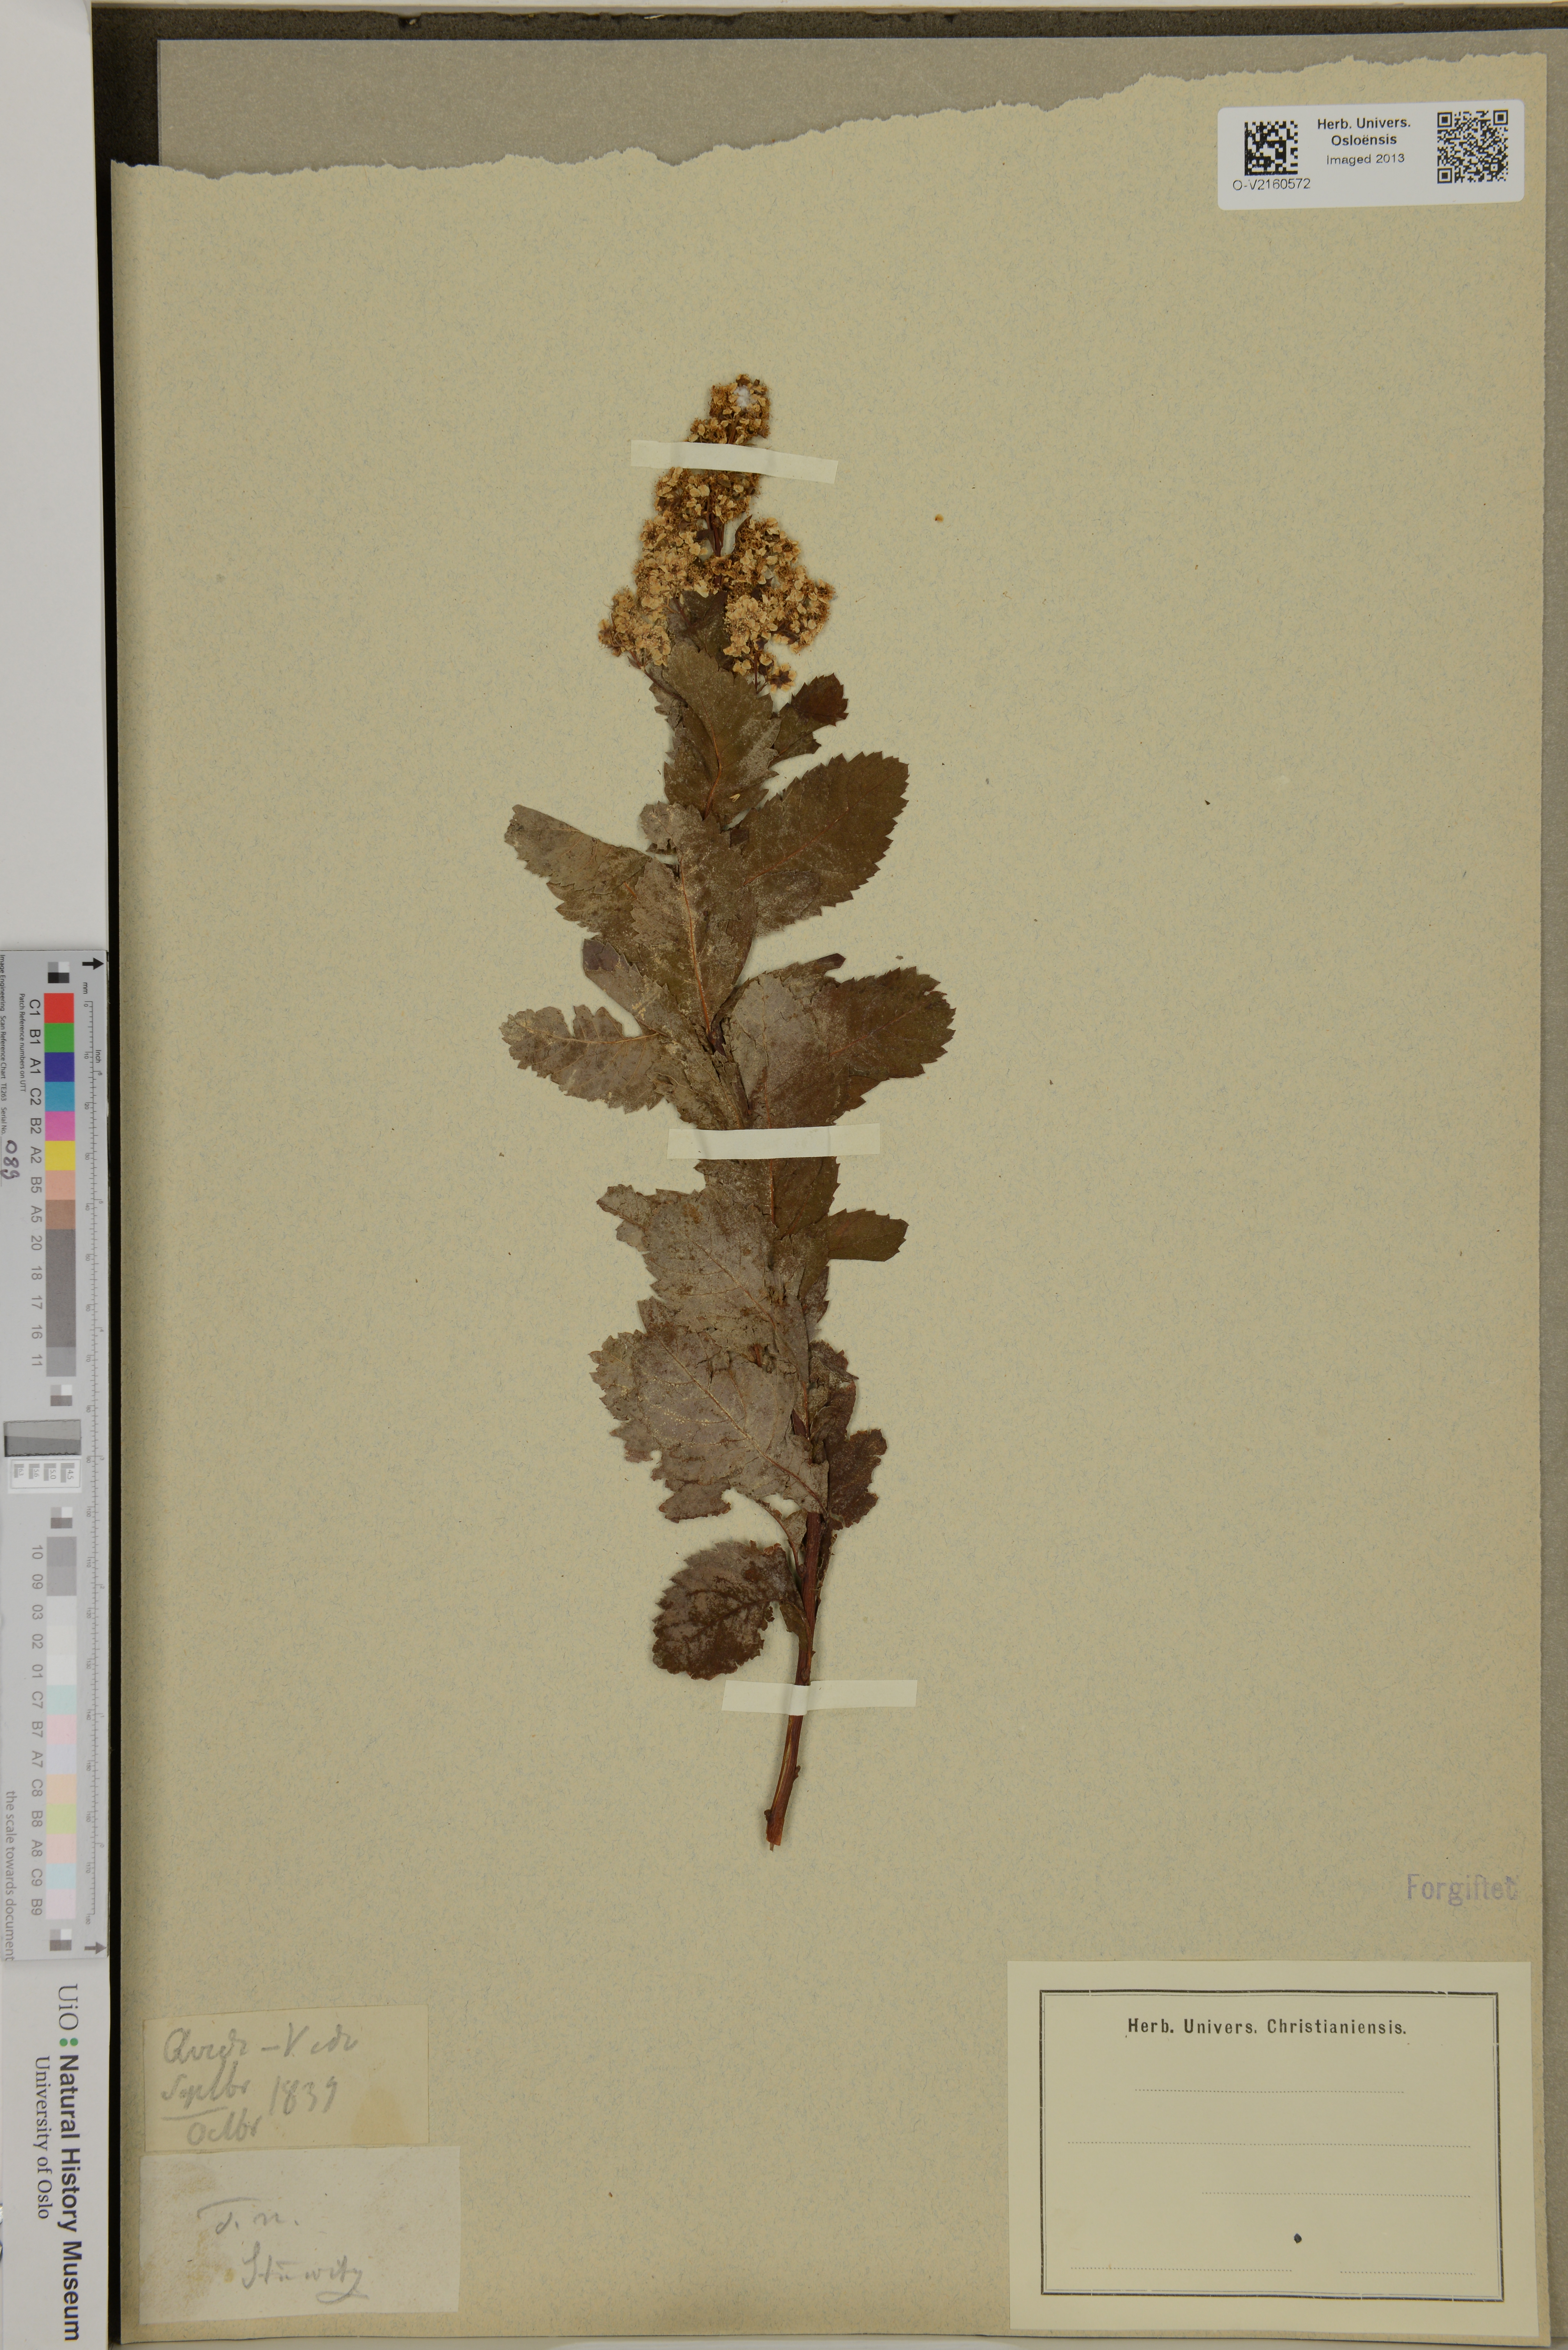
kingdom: Plantae
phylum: Tracheophyta
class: Magnoliopsida
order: Rosales
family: Rosaceae
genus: Spiraea
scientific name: Spiraea
